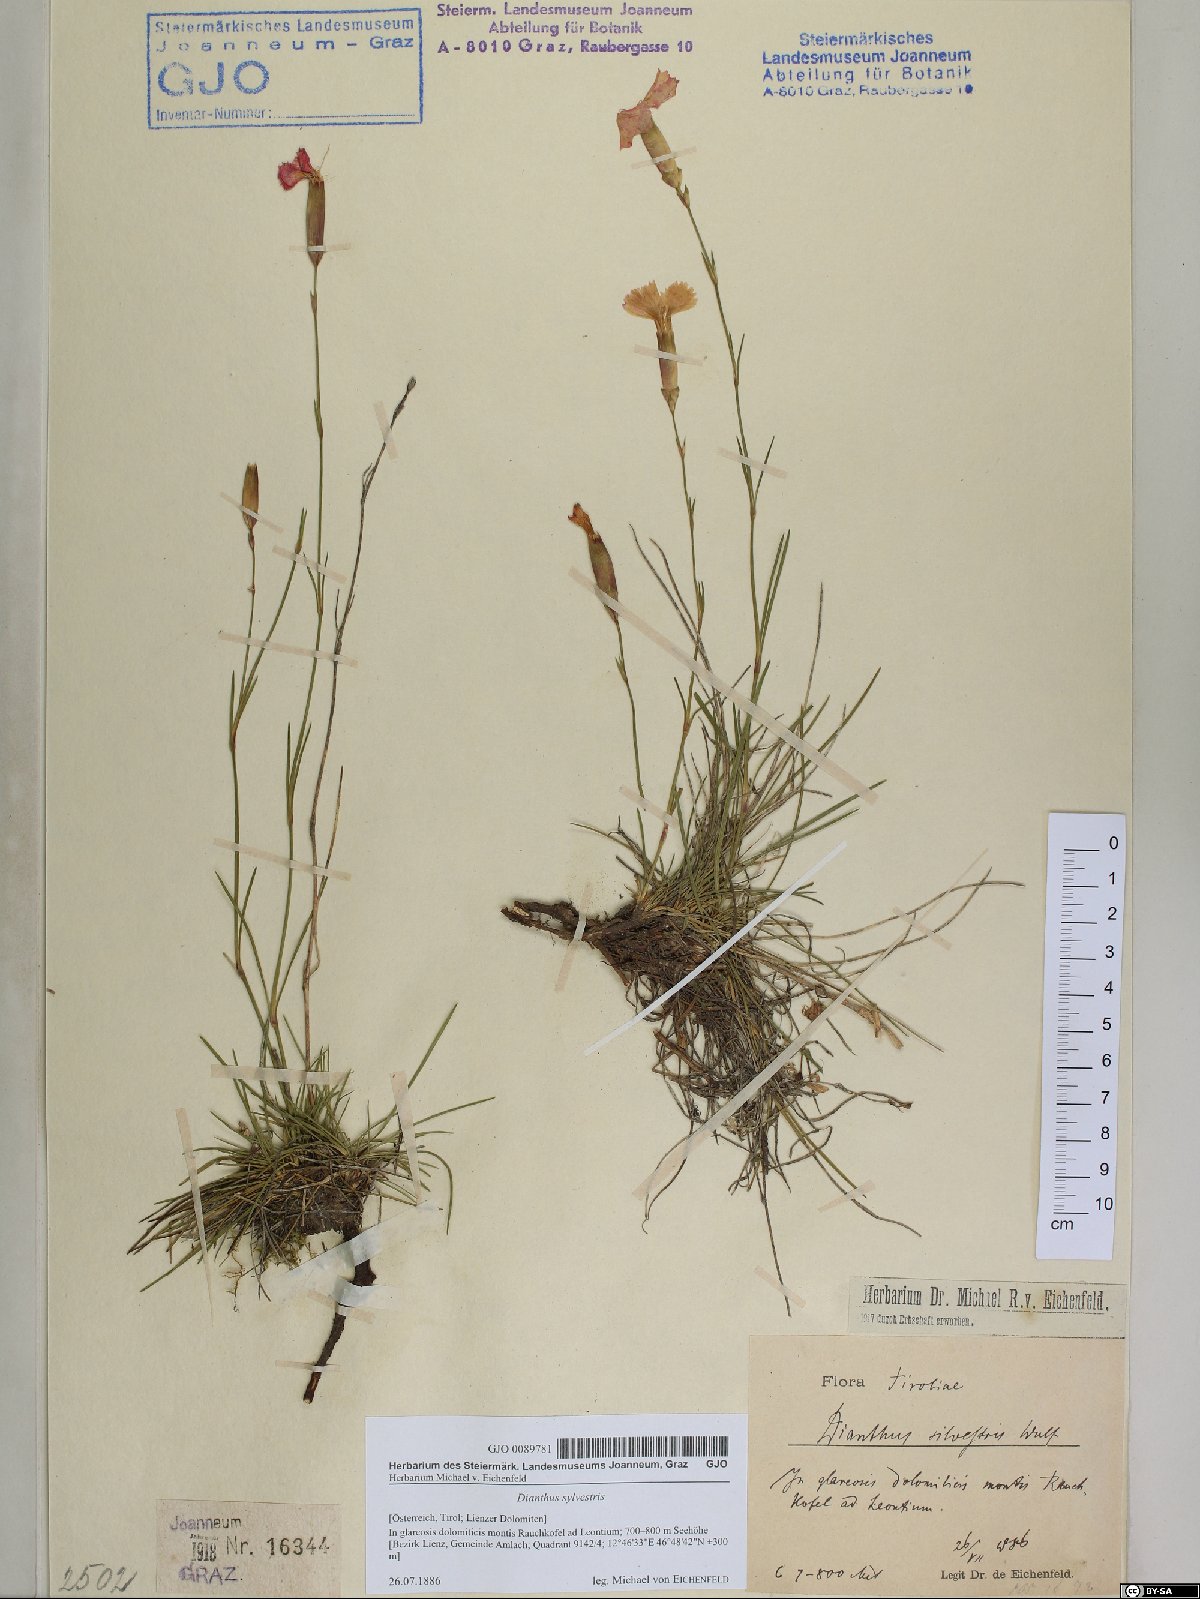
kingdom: Plantae
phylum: Tracheophyta
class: Magnoliopsida
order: Caryophyllales
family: Caryophyllaceae
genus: Dianthus
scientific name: Dianthus sylvestris
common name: Wood pink
